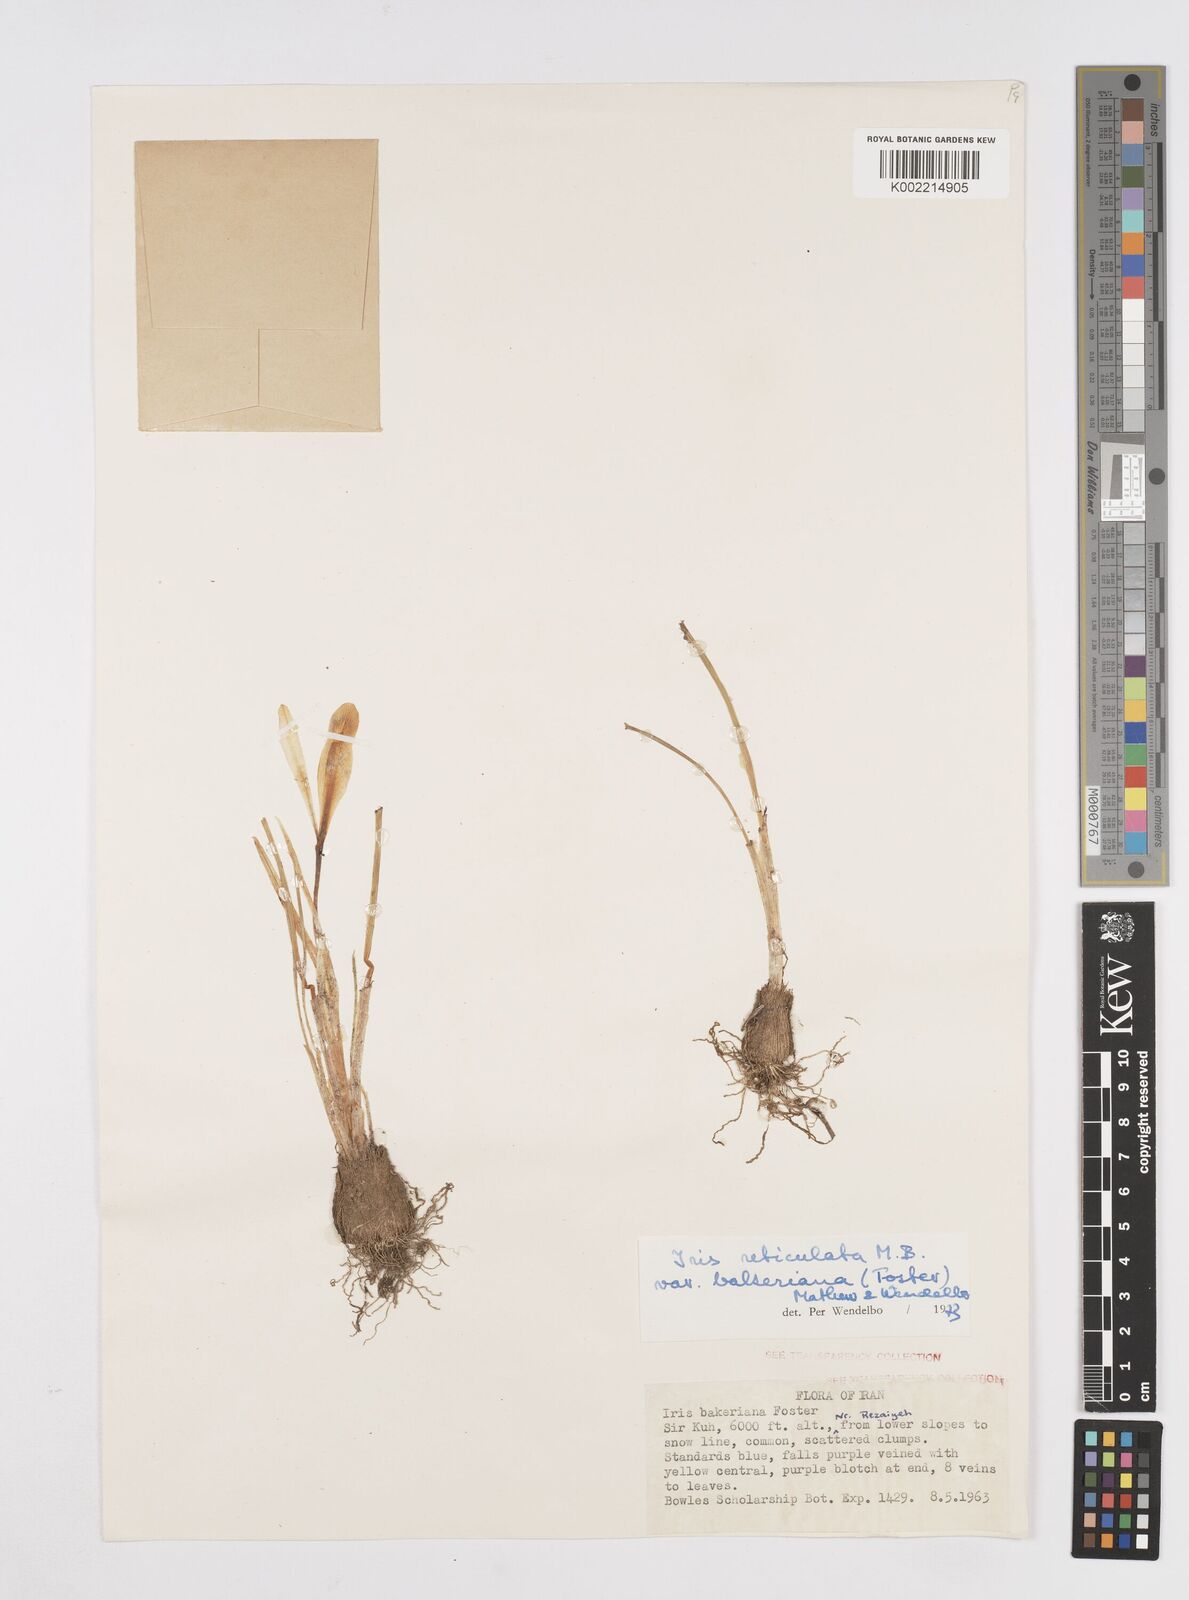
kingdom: Plantae
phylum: Tracheophyta
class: Liliopsida
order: Asparagales
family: Iridaceae
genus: Iris
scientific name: Iris reticulata
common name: Netted iris
